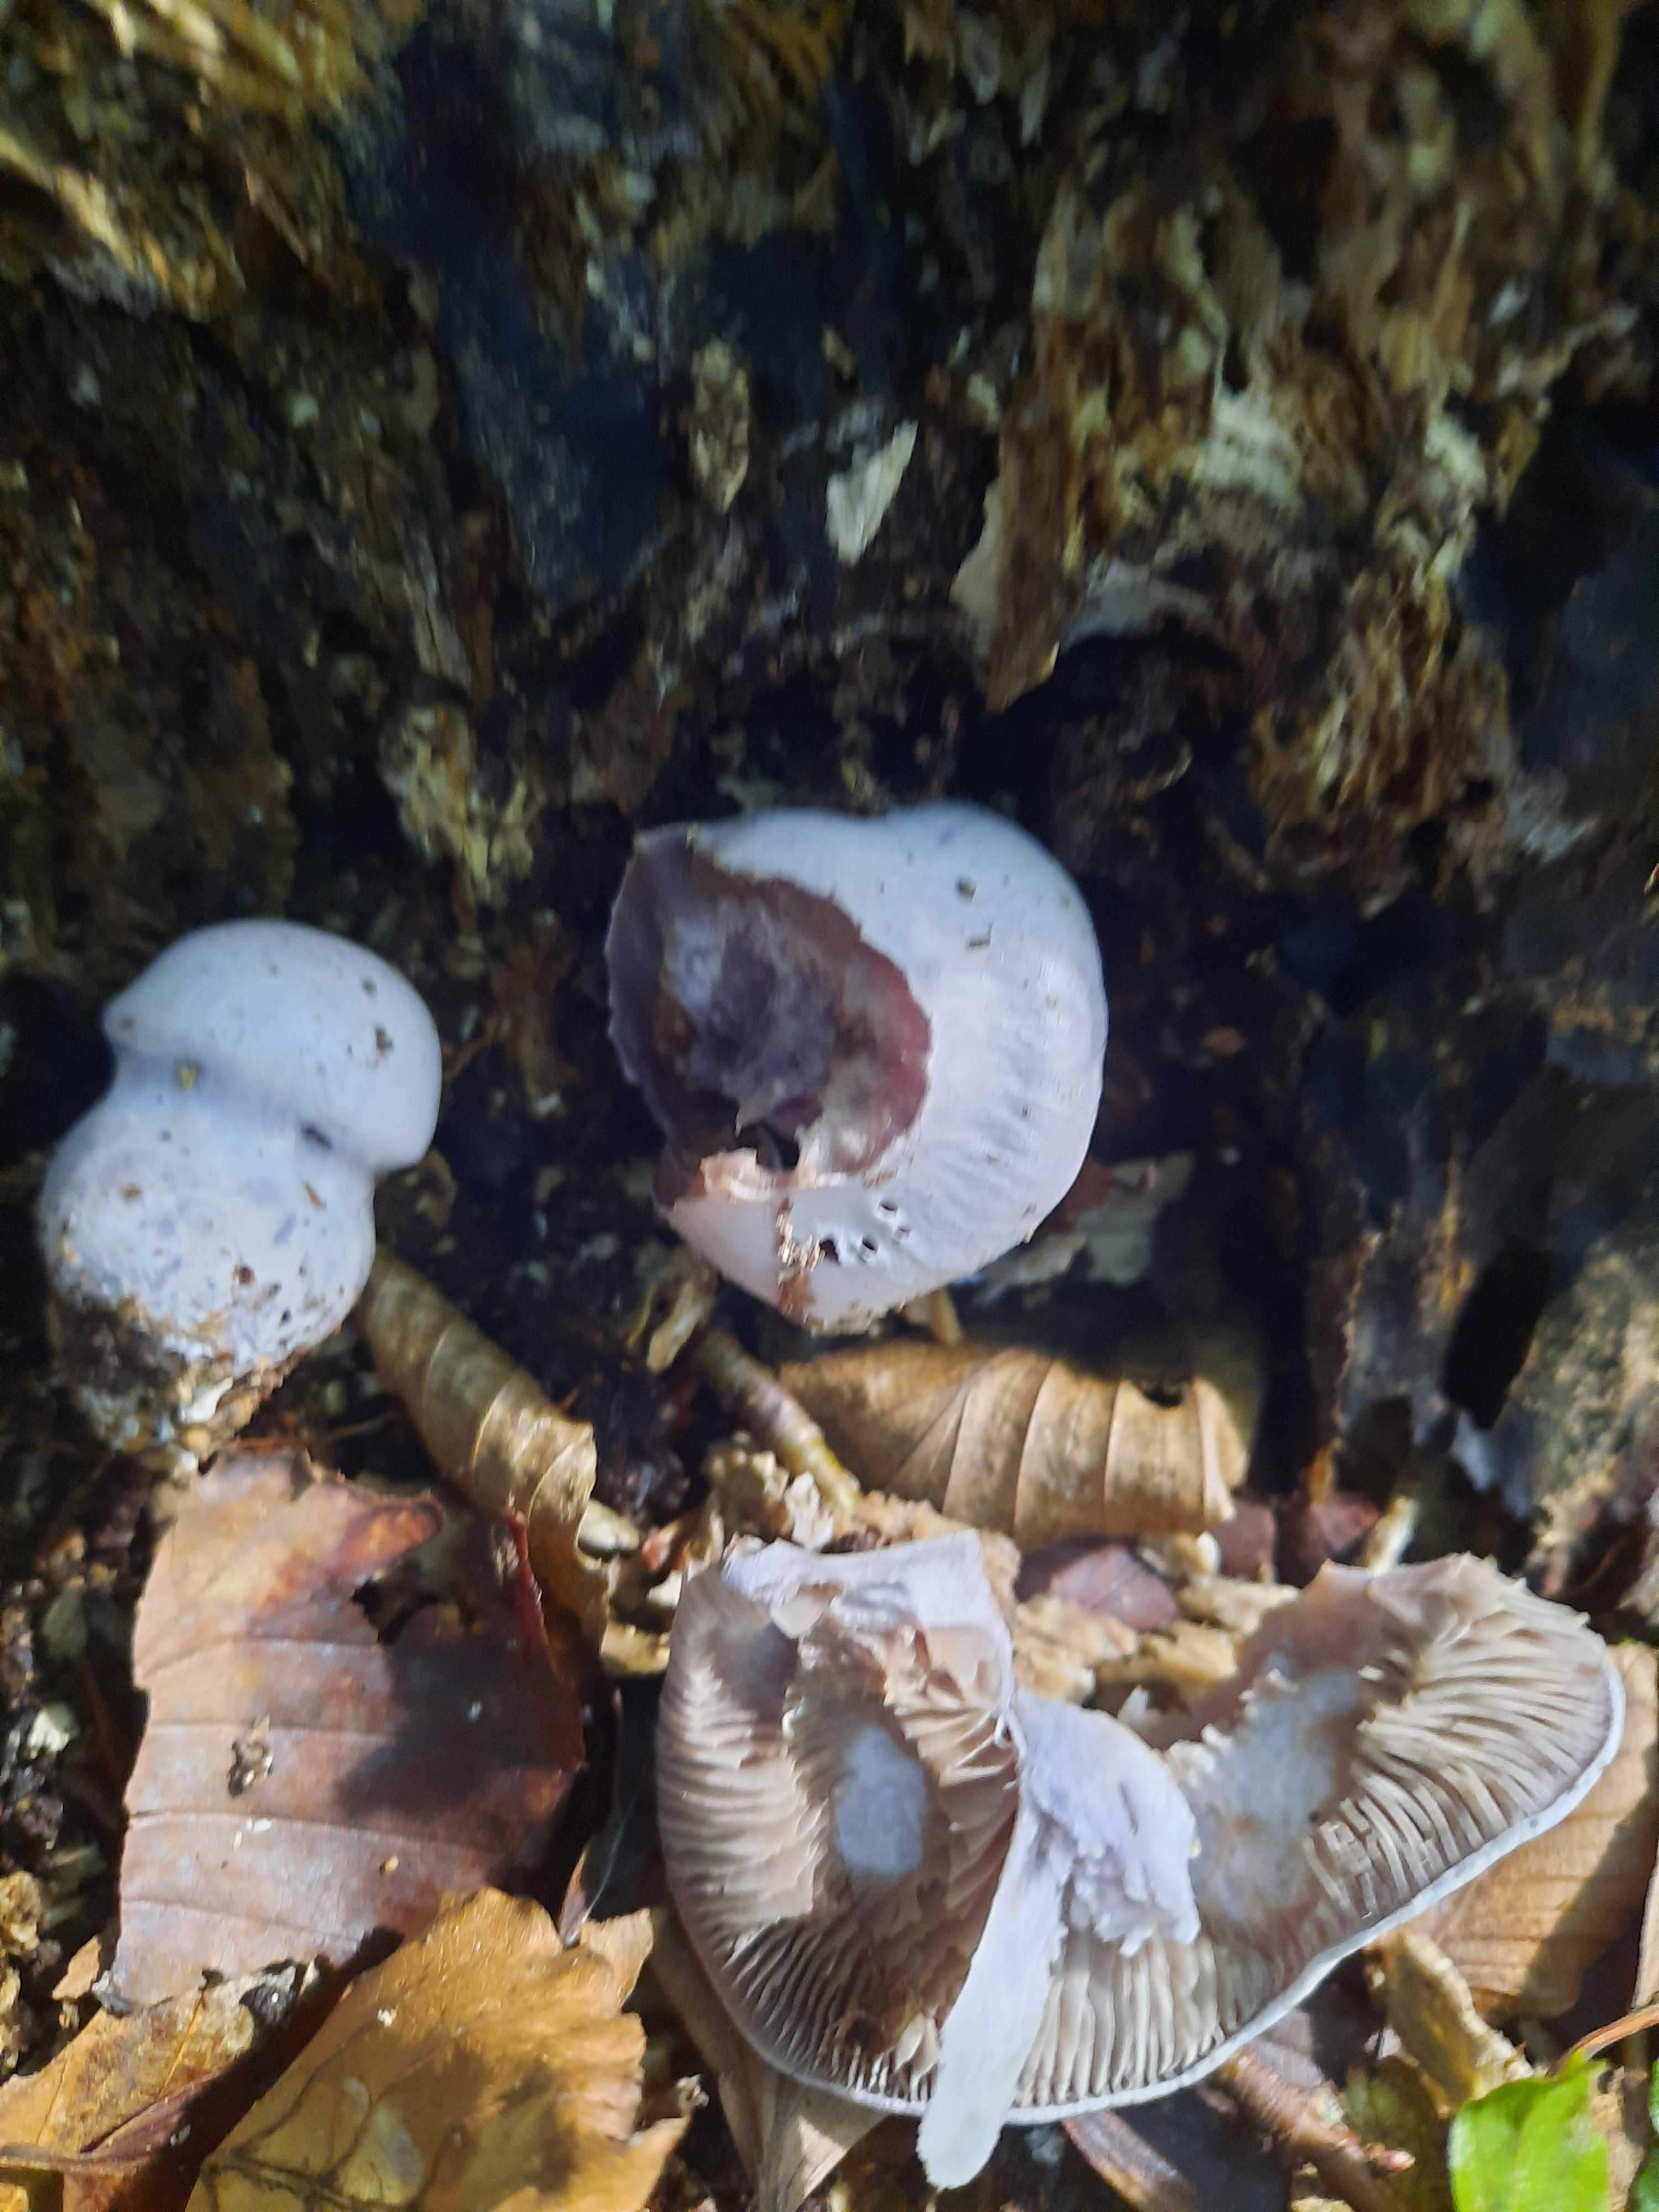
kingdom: Fungi
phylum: Basidiomycota
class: Agaricomycetes
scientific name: Agaricomycetes
